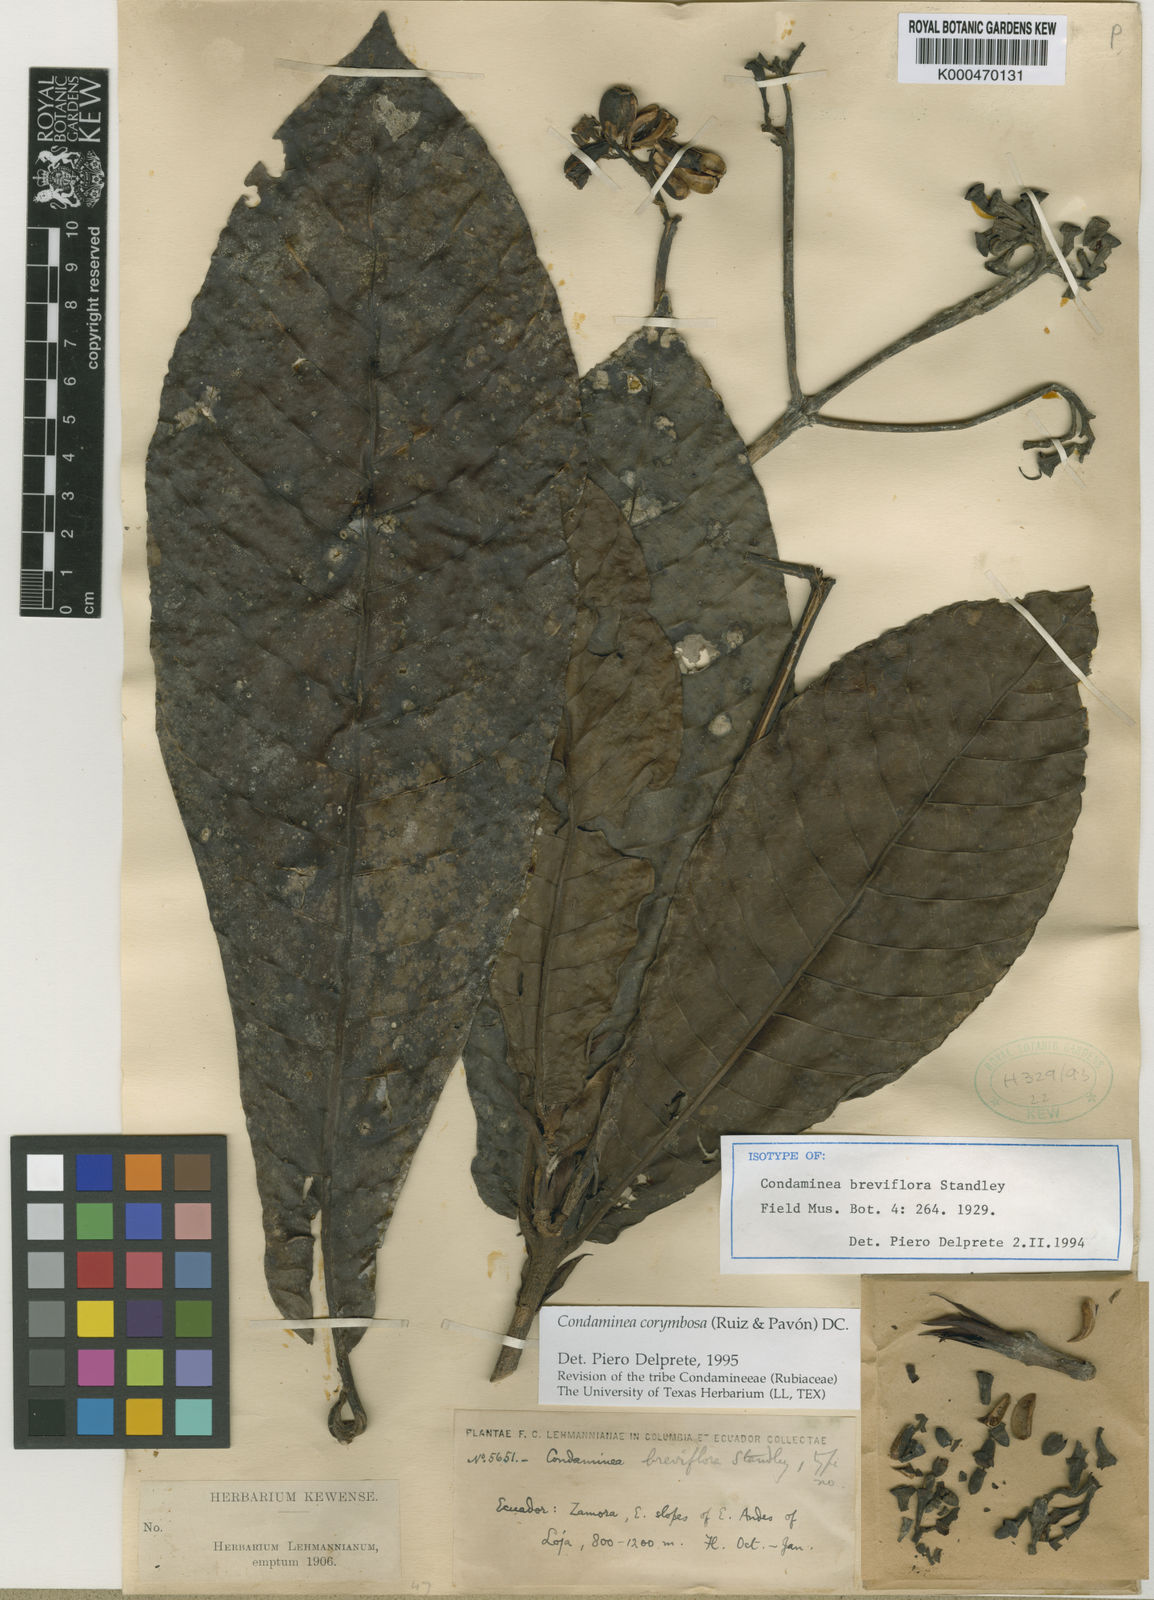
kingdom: Plantae
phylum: Tracheophyta
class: Magnoliopsida
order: Gentianales
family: Rubiaceae
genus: Condaminea
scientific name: Condaminea
